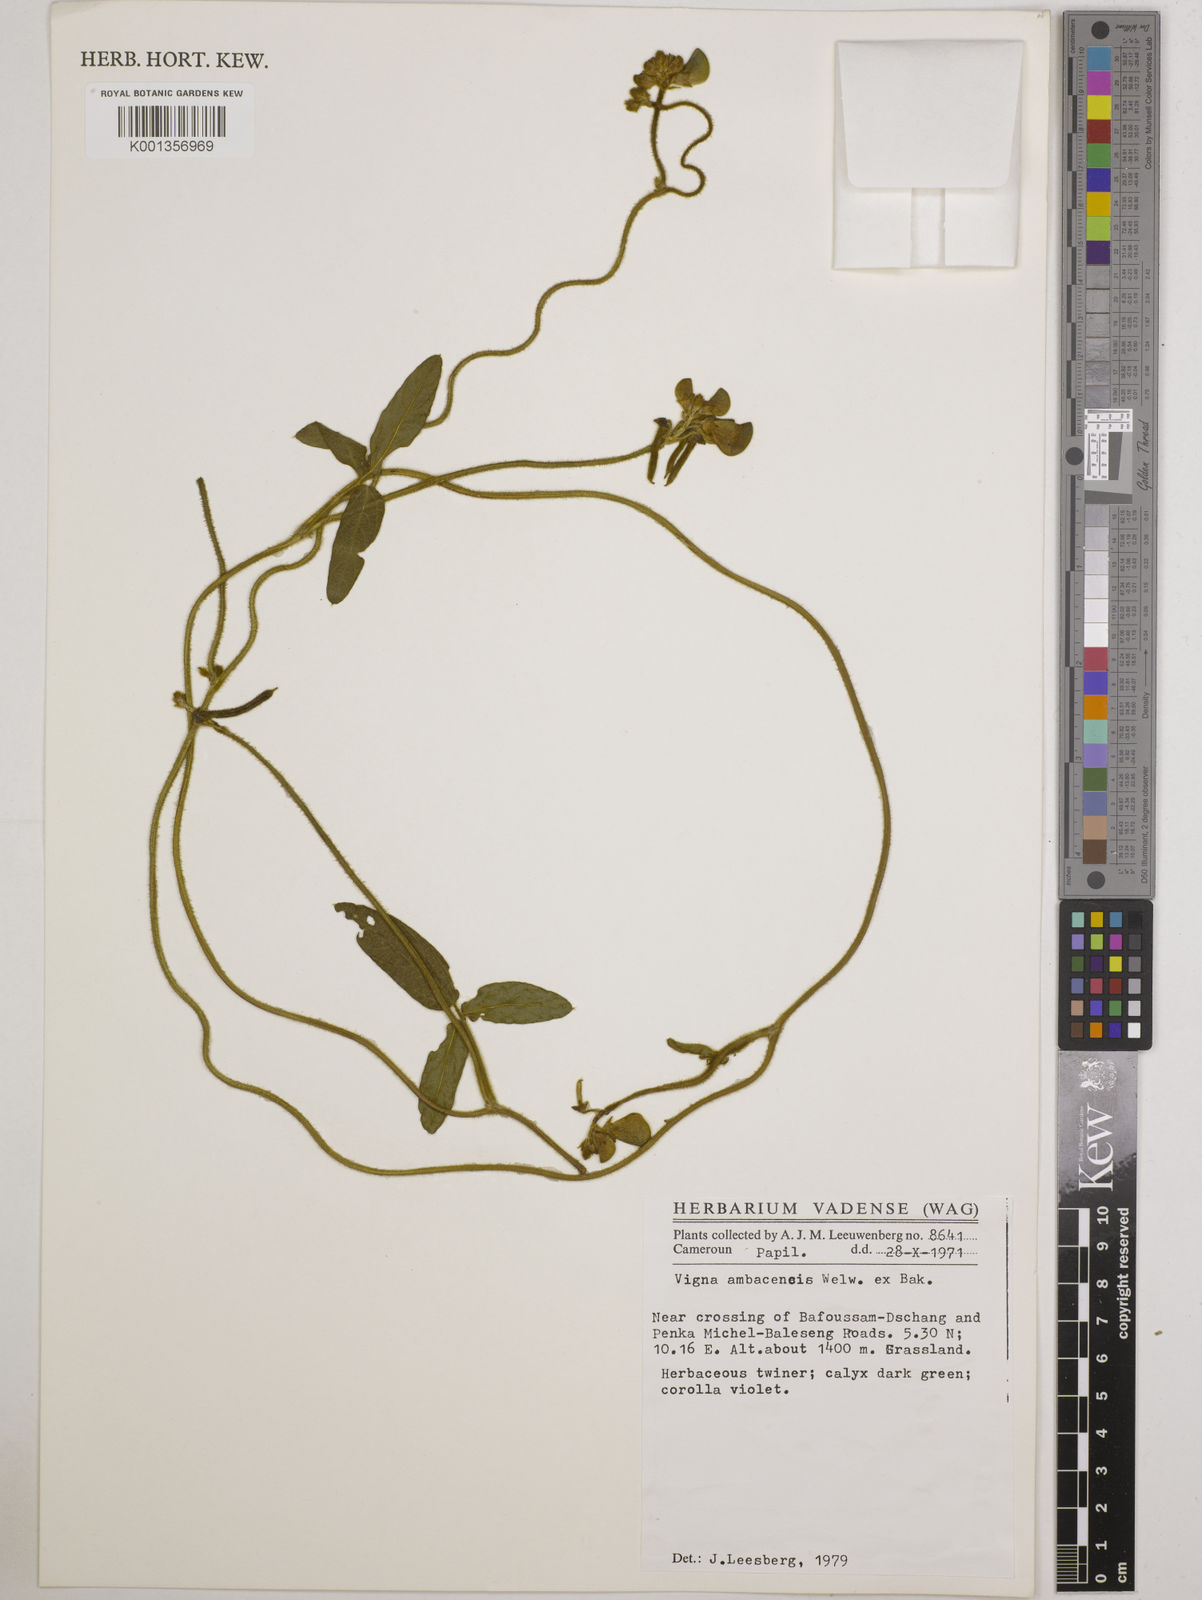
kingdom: Plantae
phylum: Tracheophyta
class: Magnoliopsida
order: Fabales
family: Fabaceae
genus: Vigna
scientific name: Vigna ambacensis
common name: Tsarkiyan zomo
